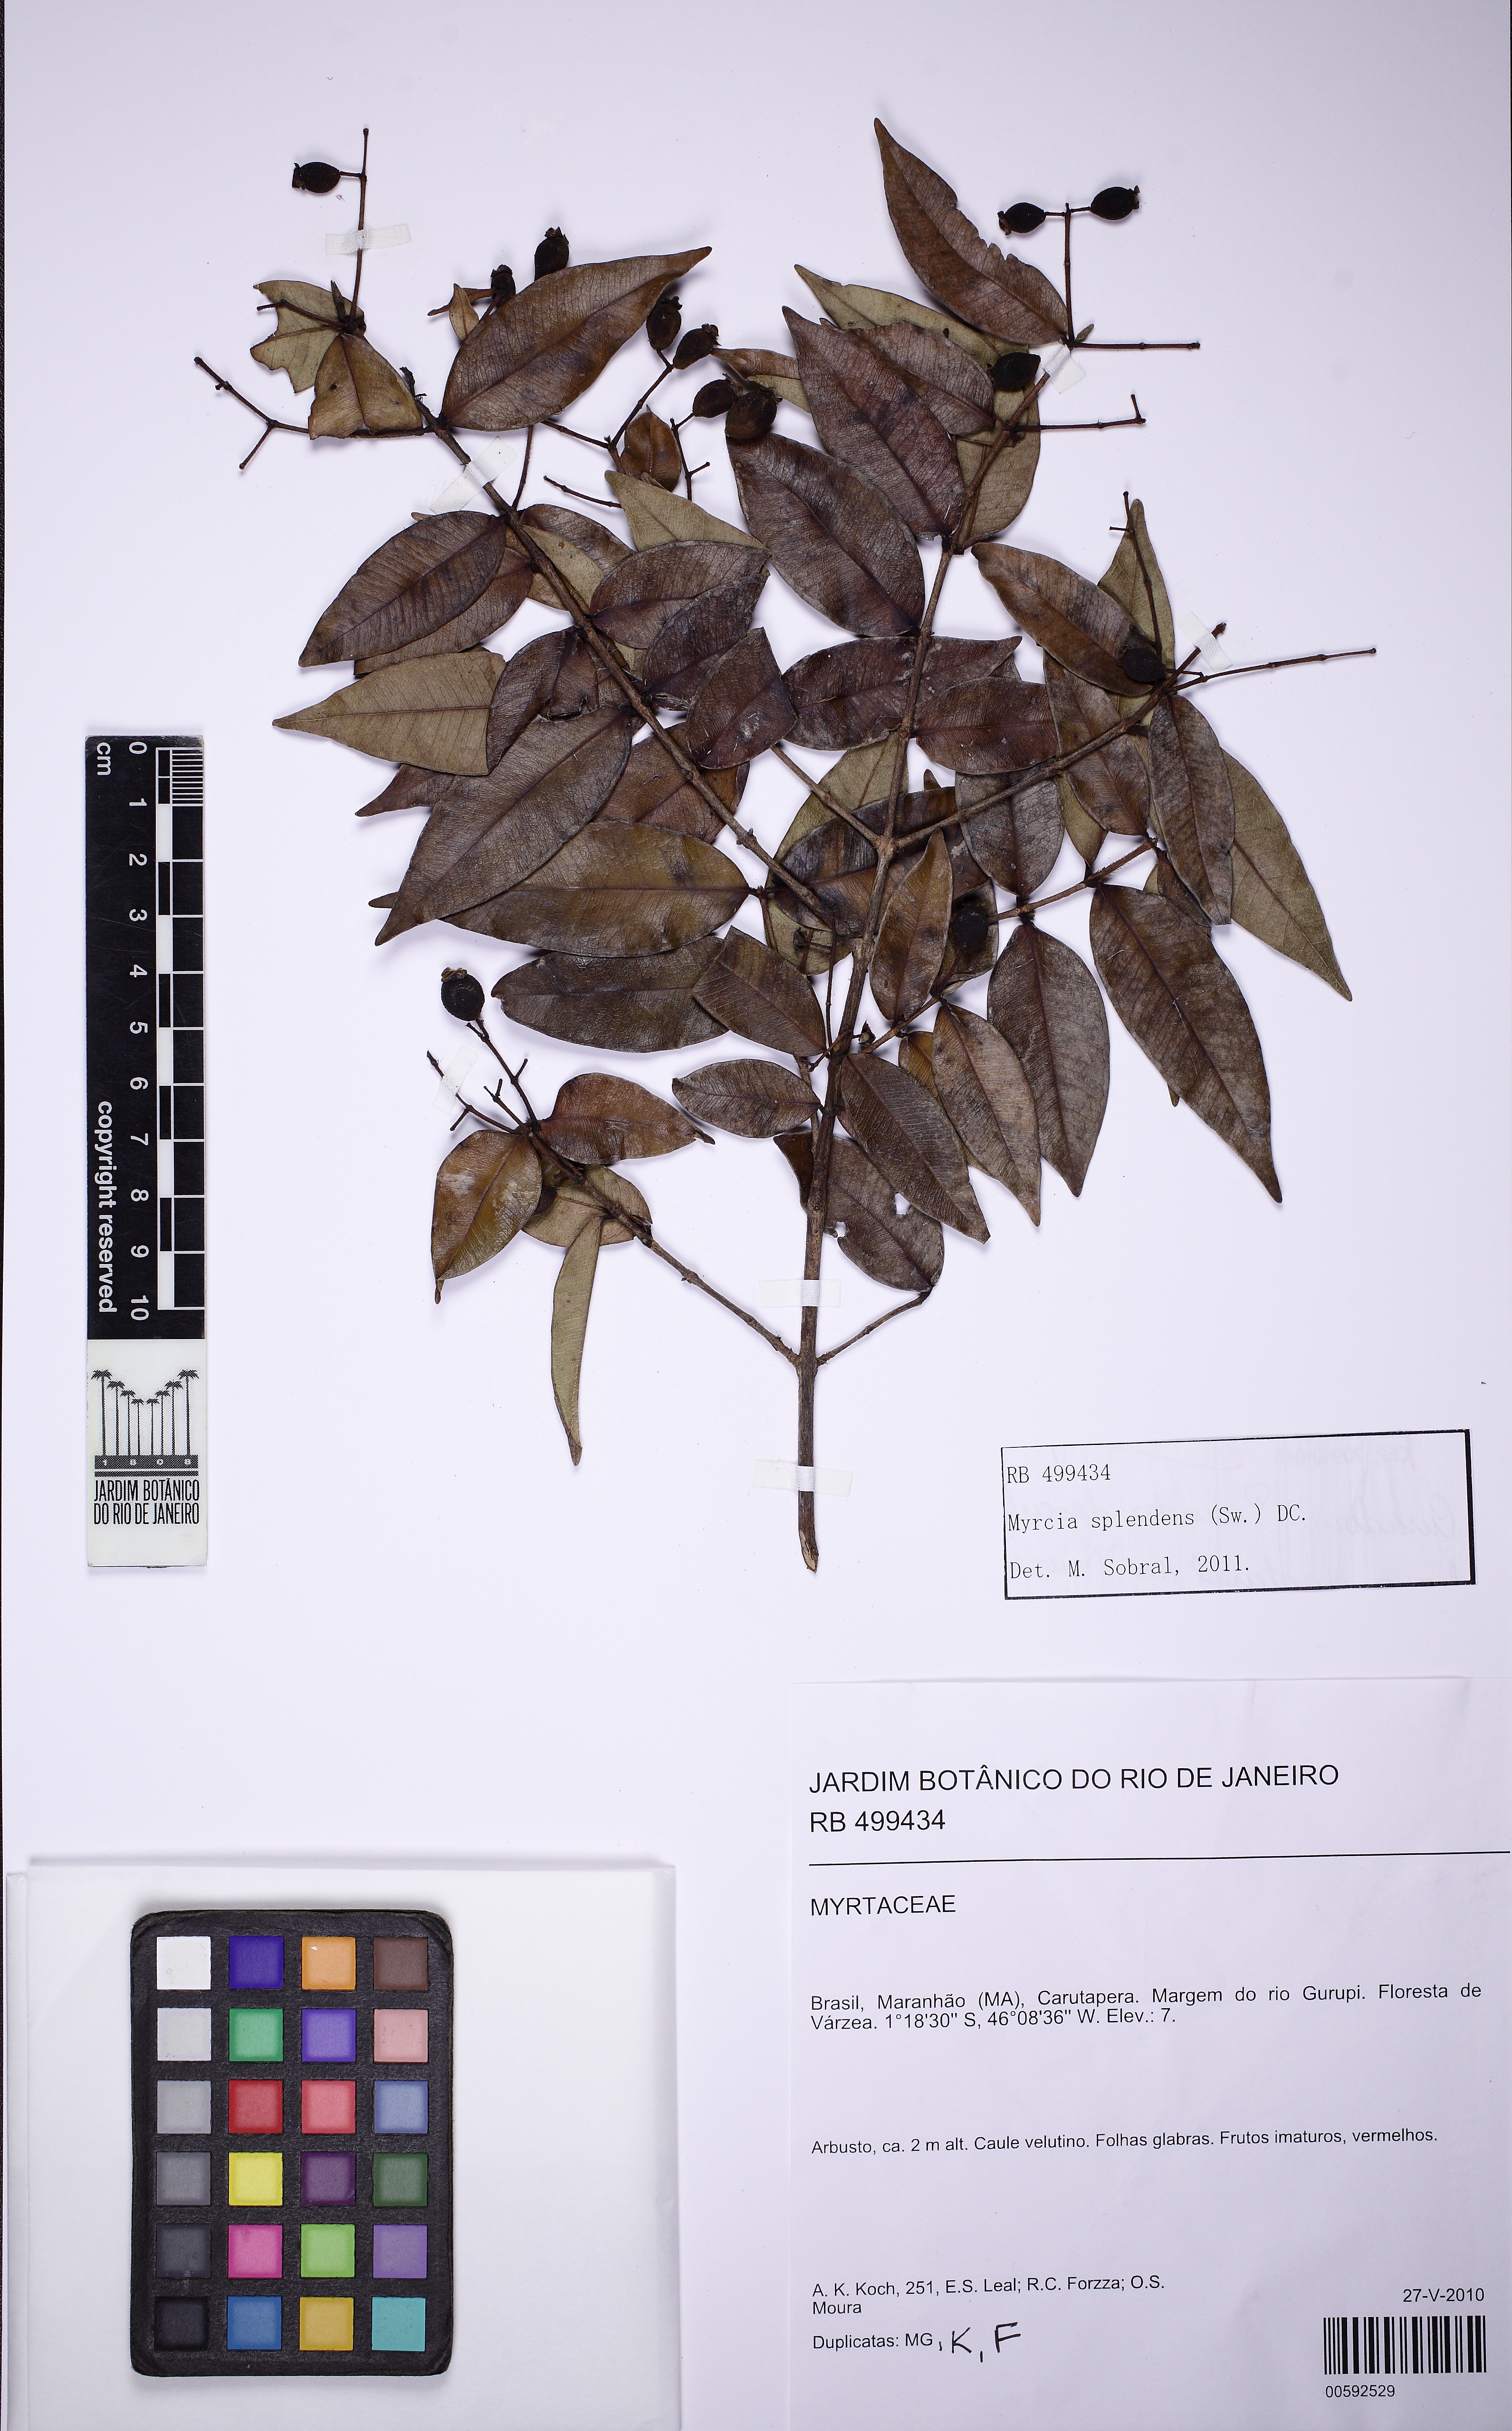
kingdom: Plantae
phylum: Tracheophyta
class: Magnoliopsida
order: Myrtales
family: Myrtaceae
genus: Myrcia
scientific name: Myrcia splendens
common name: Surinam cherry
